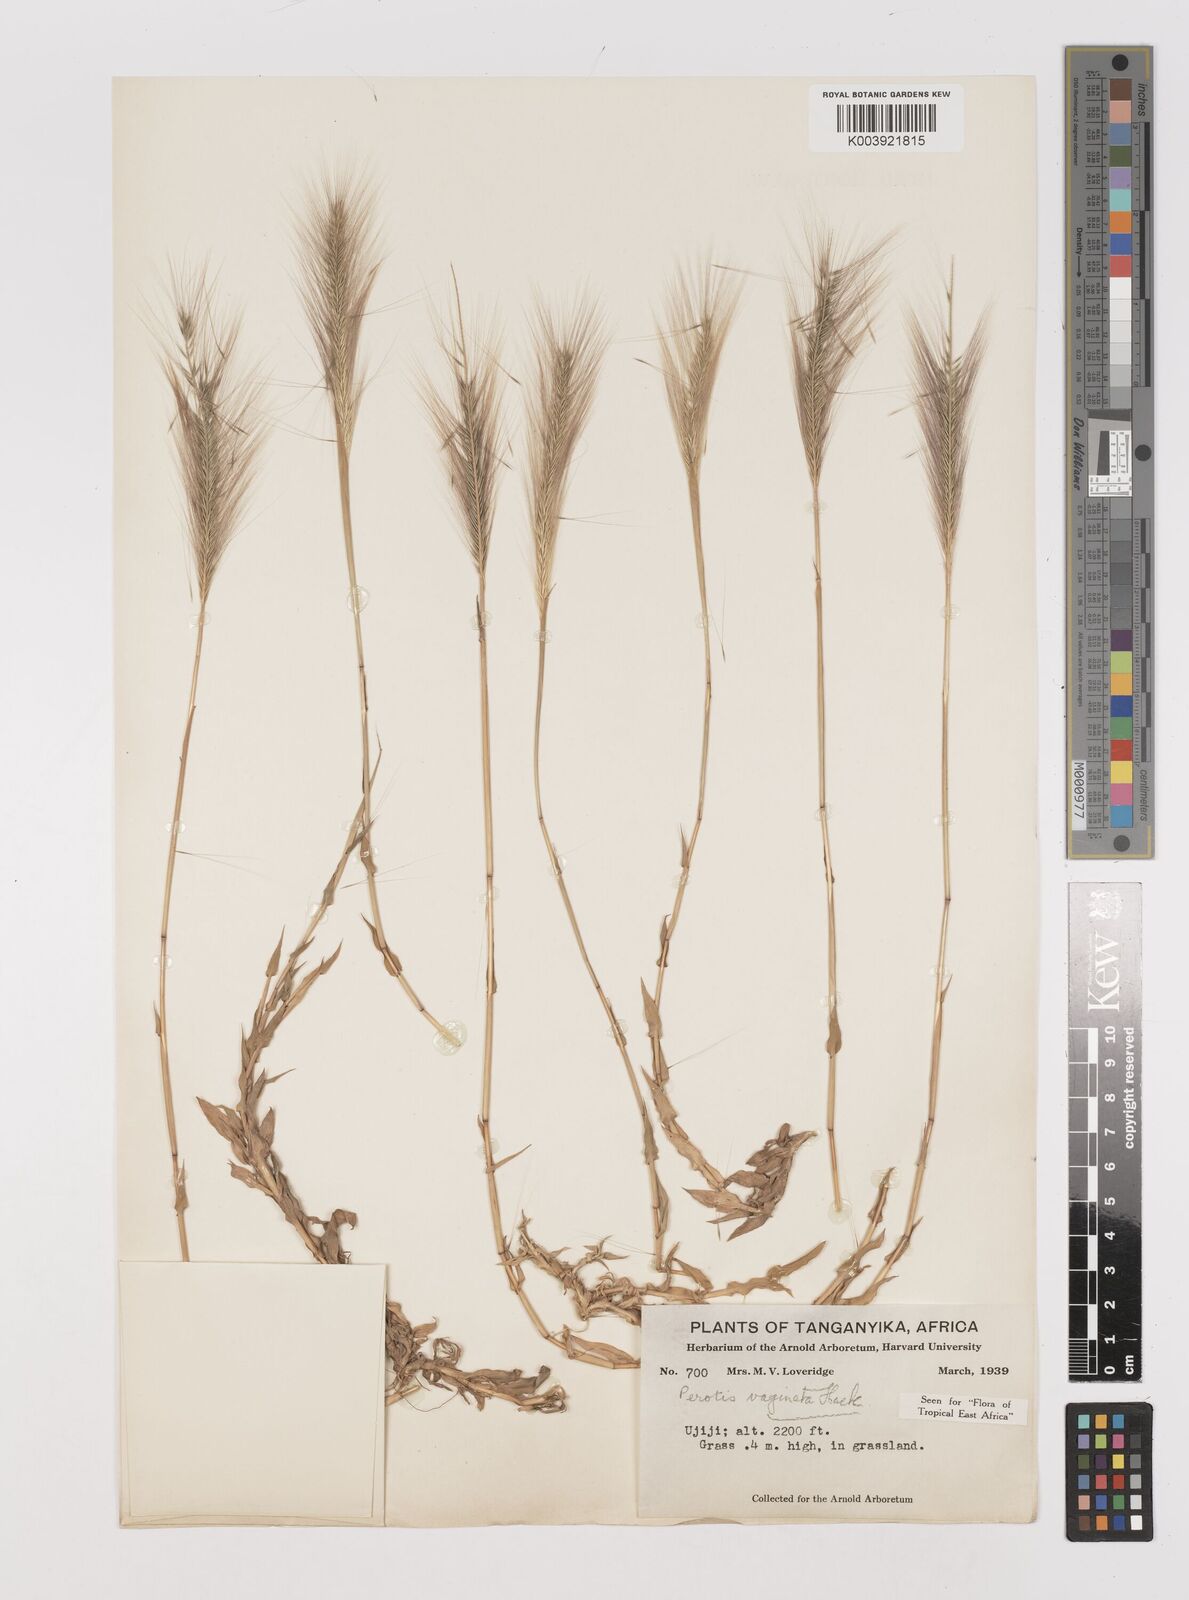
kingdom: Plantae
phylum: Tracheophyta
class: Liliopsida
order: Poales
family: Poaceae
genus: Perotis
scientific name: Perotis vaginata
